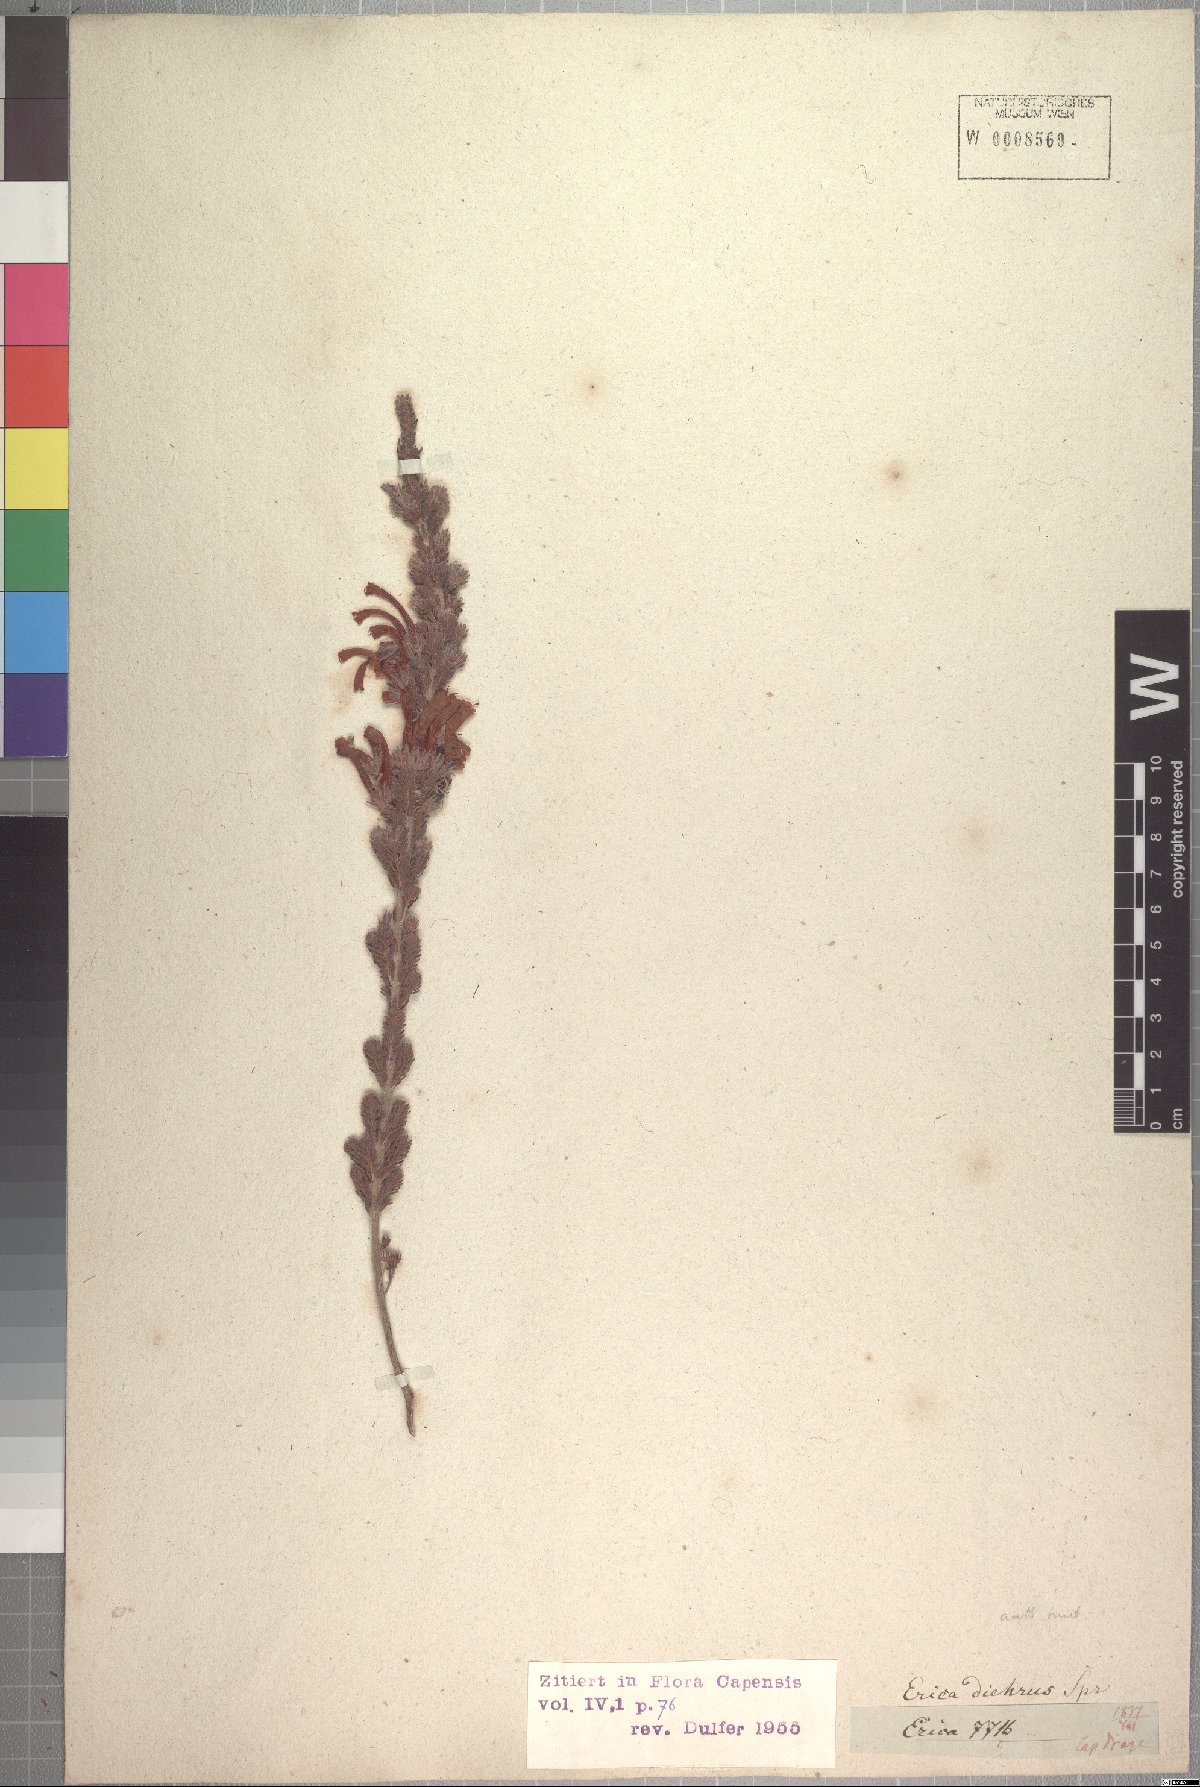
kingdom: Plantae
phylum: Tracheophyta
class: Magnoliopsida
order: Ericales
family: Ericaceae
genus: Erica
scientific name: Erica unicolor
